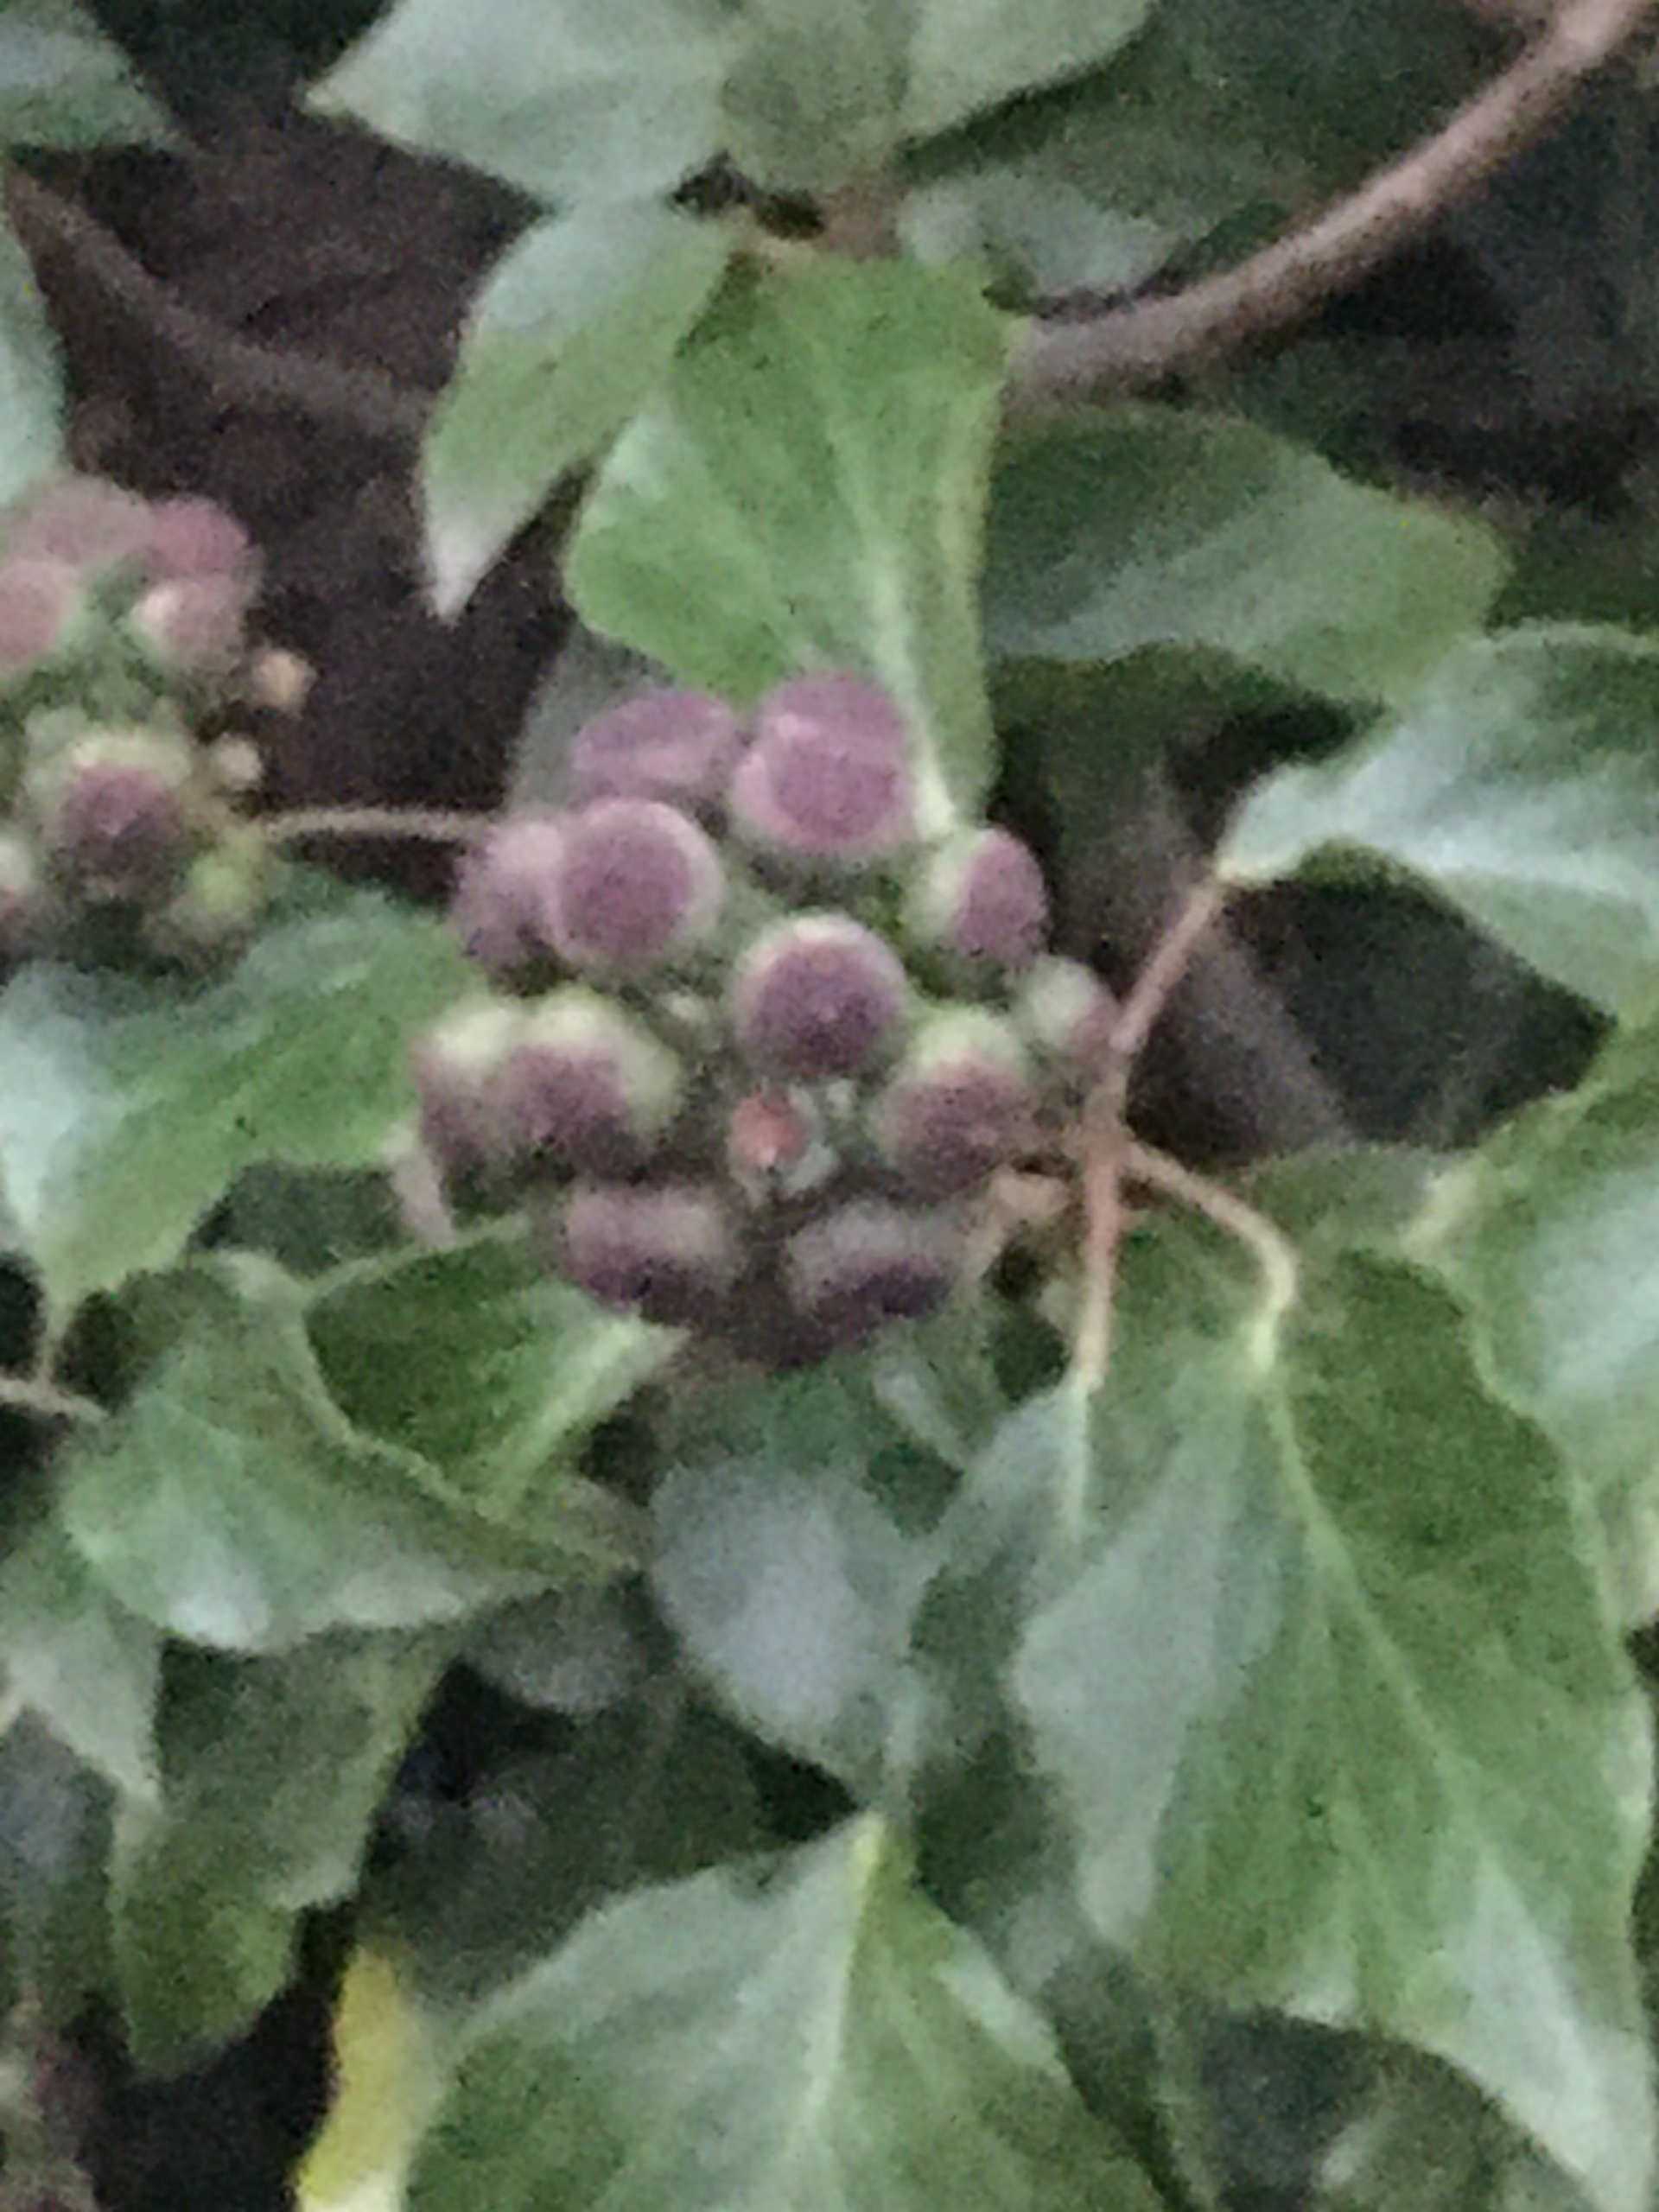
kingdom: Plantae
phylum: Tracheophyta
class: Magnoliopsida
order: Apiales
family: Araliaceae
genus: Hedera
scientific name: Hedera helix
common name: Vedbend
